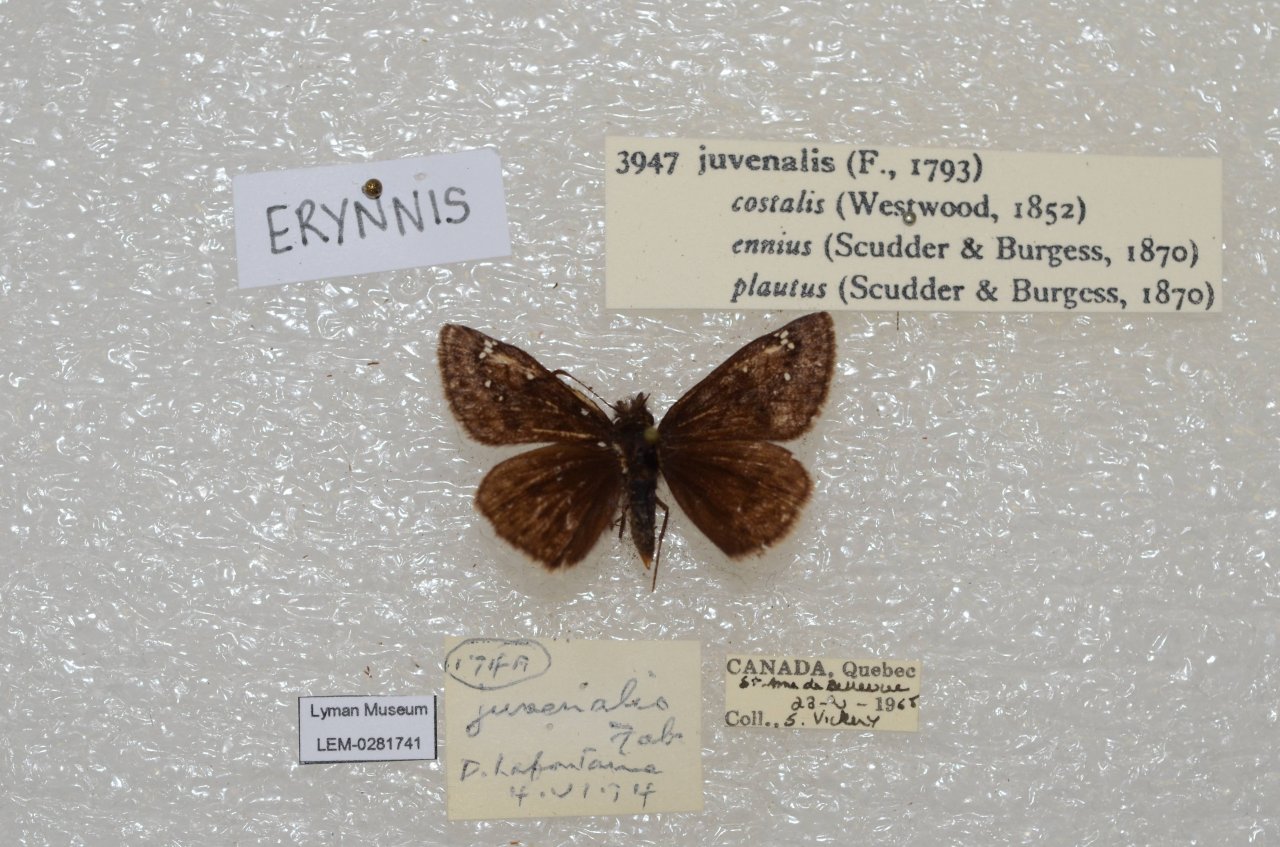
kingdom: Animalia
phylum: Arthropoda
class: Insecta
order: Lepidoptera
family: Hesperiidae
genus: Gesta
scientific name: Gesta
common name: Juvenal's Duskywing
